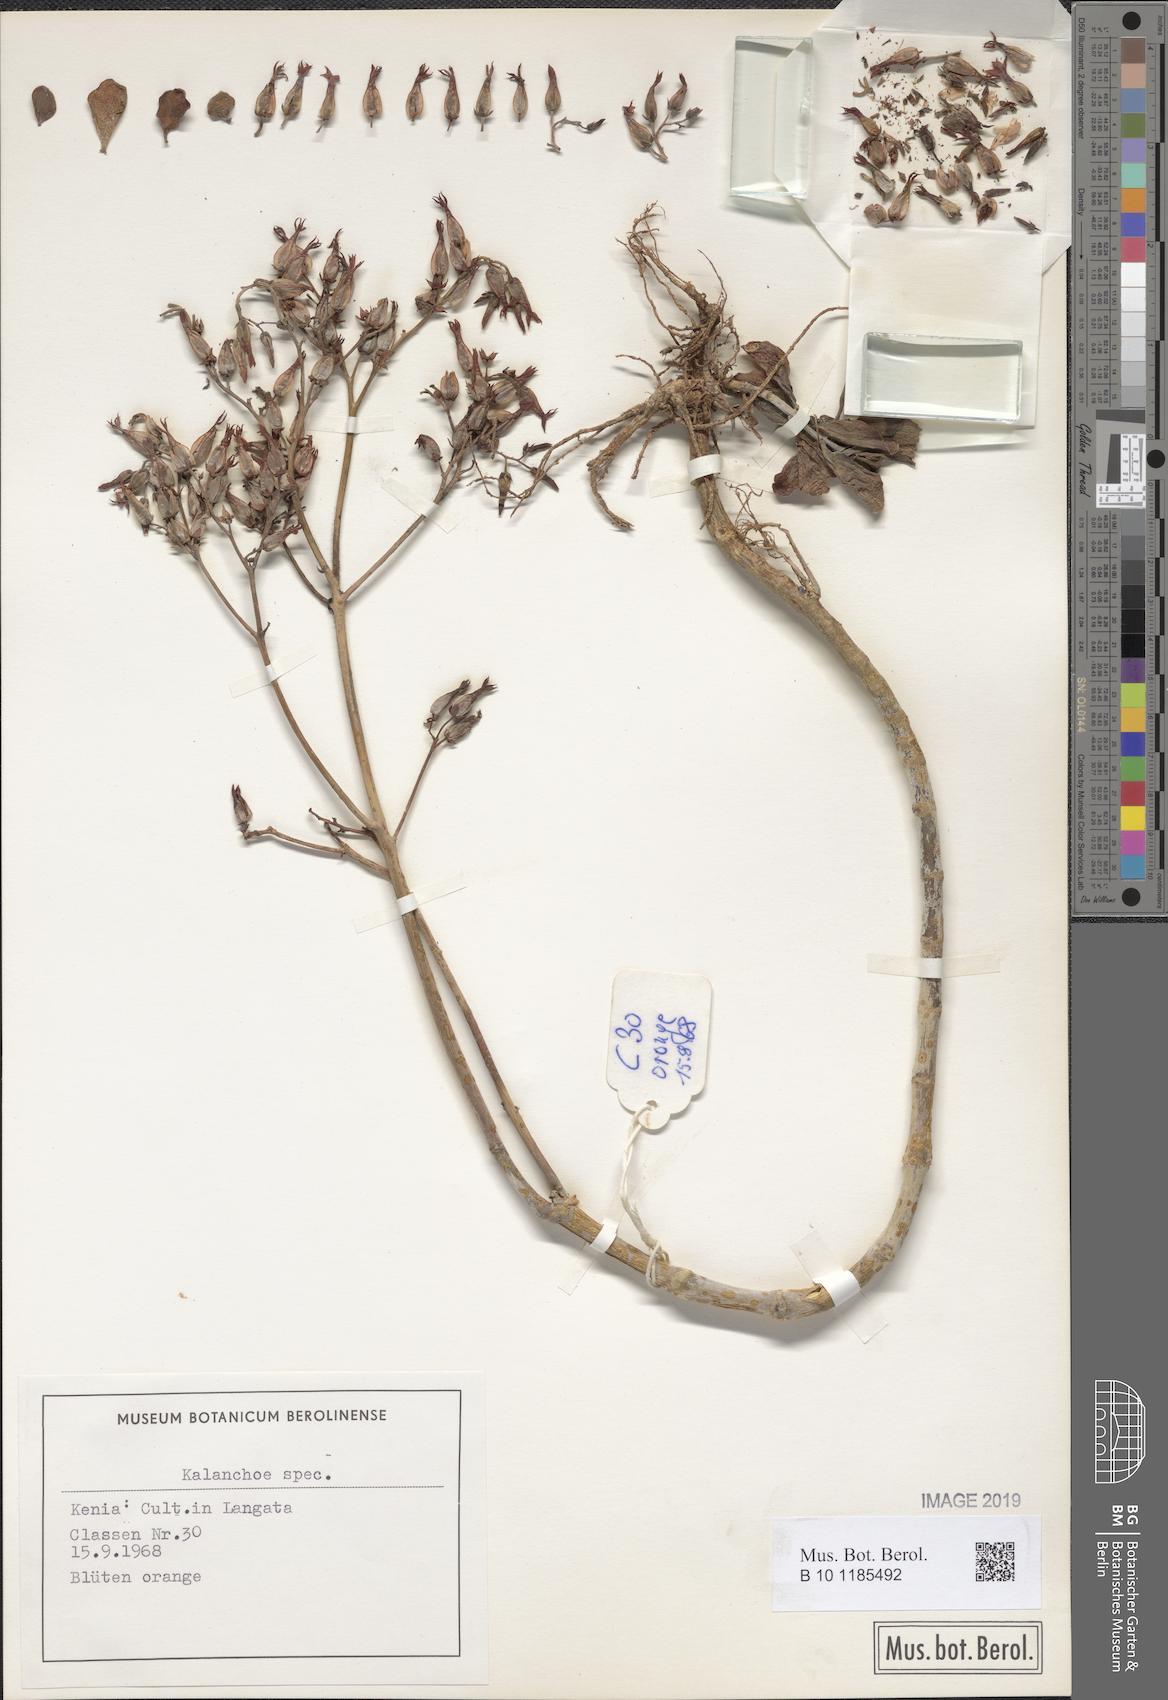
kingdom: Plantae
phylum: Tracheophyta
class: Magnoliopsida
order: Saxifragales
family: Crassulaceae
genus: Kalanchoe
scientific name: Kalanchoe
